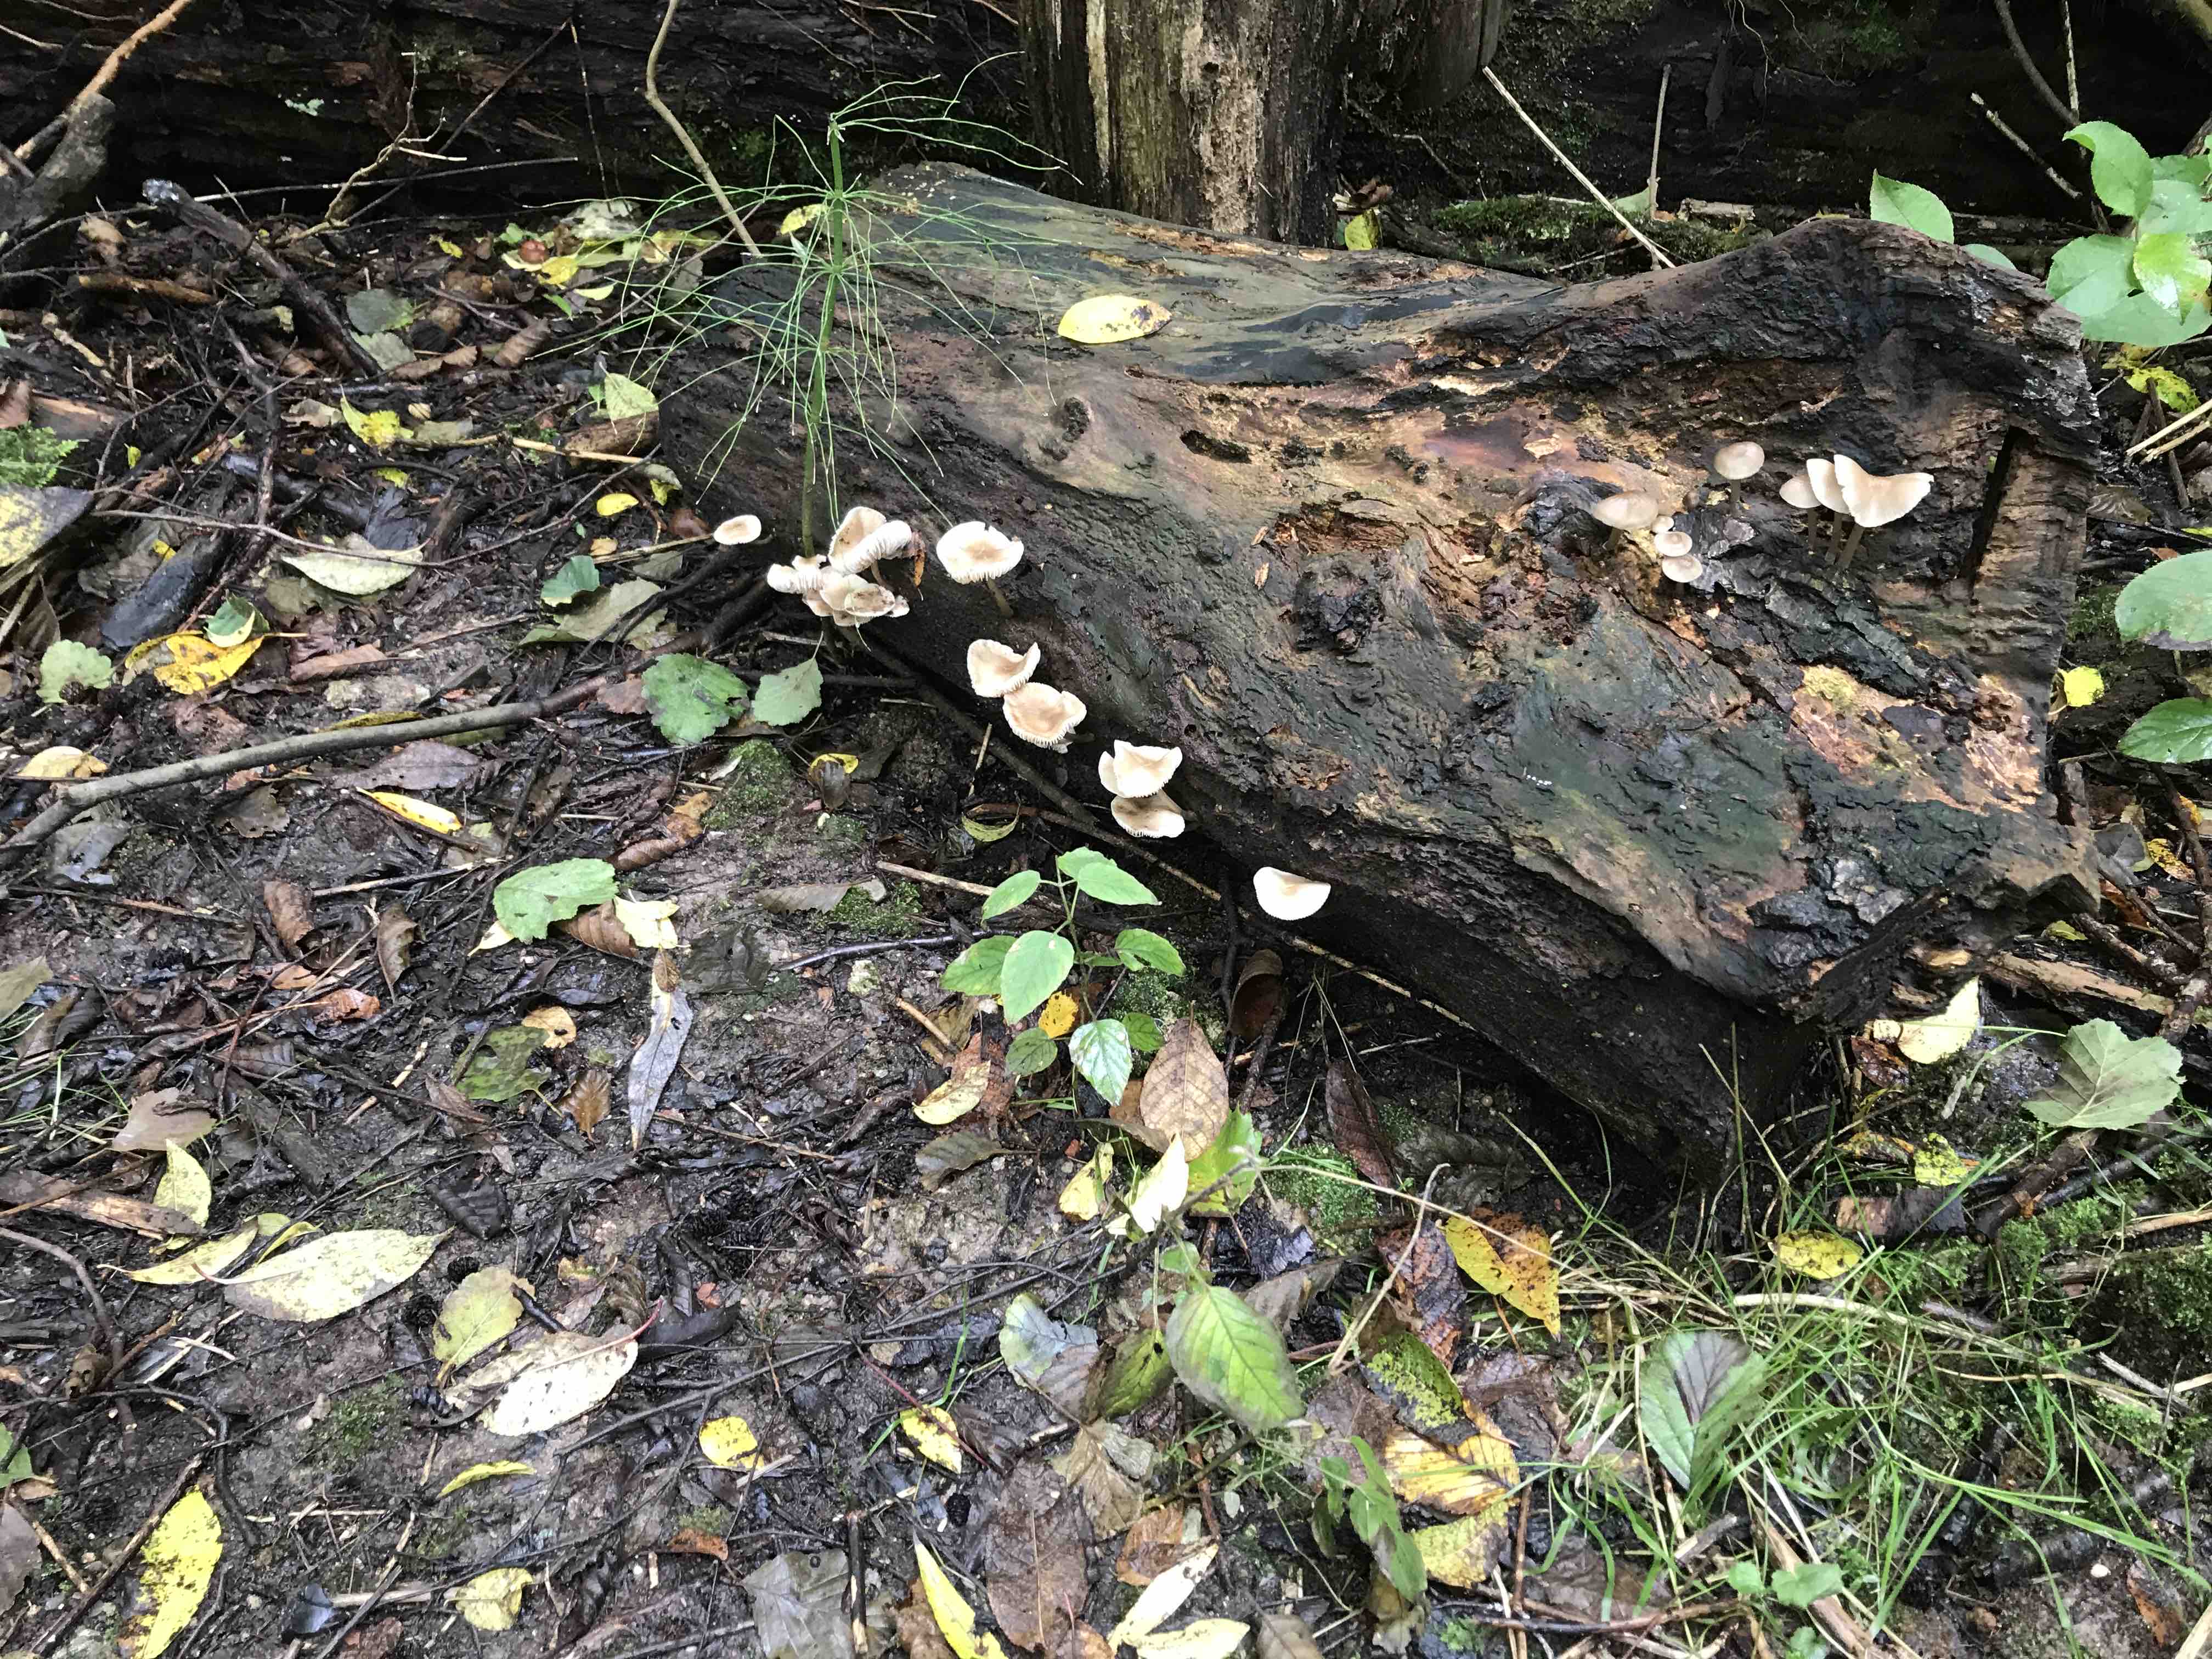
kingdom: Fungi
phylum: Basidiomycota
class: Agaricomycetes
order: Agaricales
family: Mycenaceae
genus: Mycena
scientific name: Mycena galericulata
